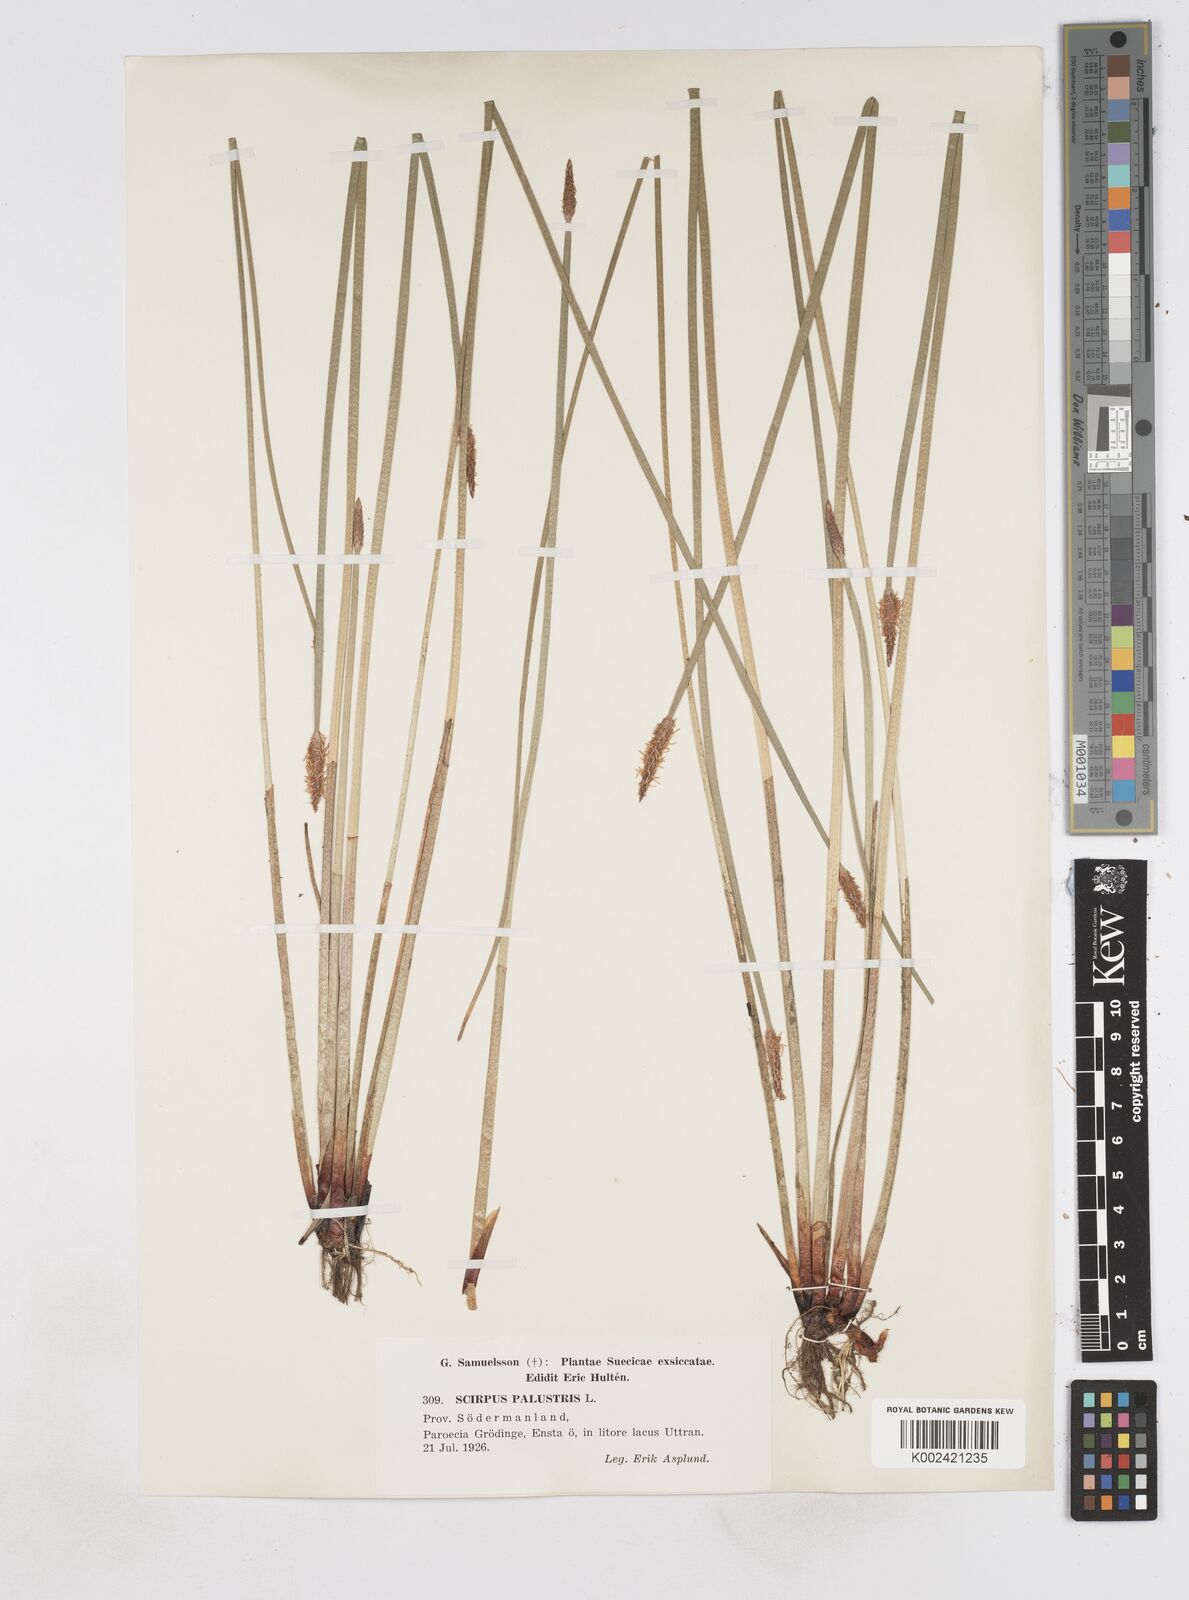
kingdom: Plantae
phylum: Tracheophyta
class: Liliopsida
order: Poales
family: Cyperaceae
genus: Eleocharis
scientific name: Eleocharis palustris
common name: Common spike-rush
